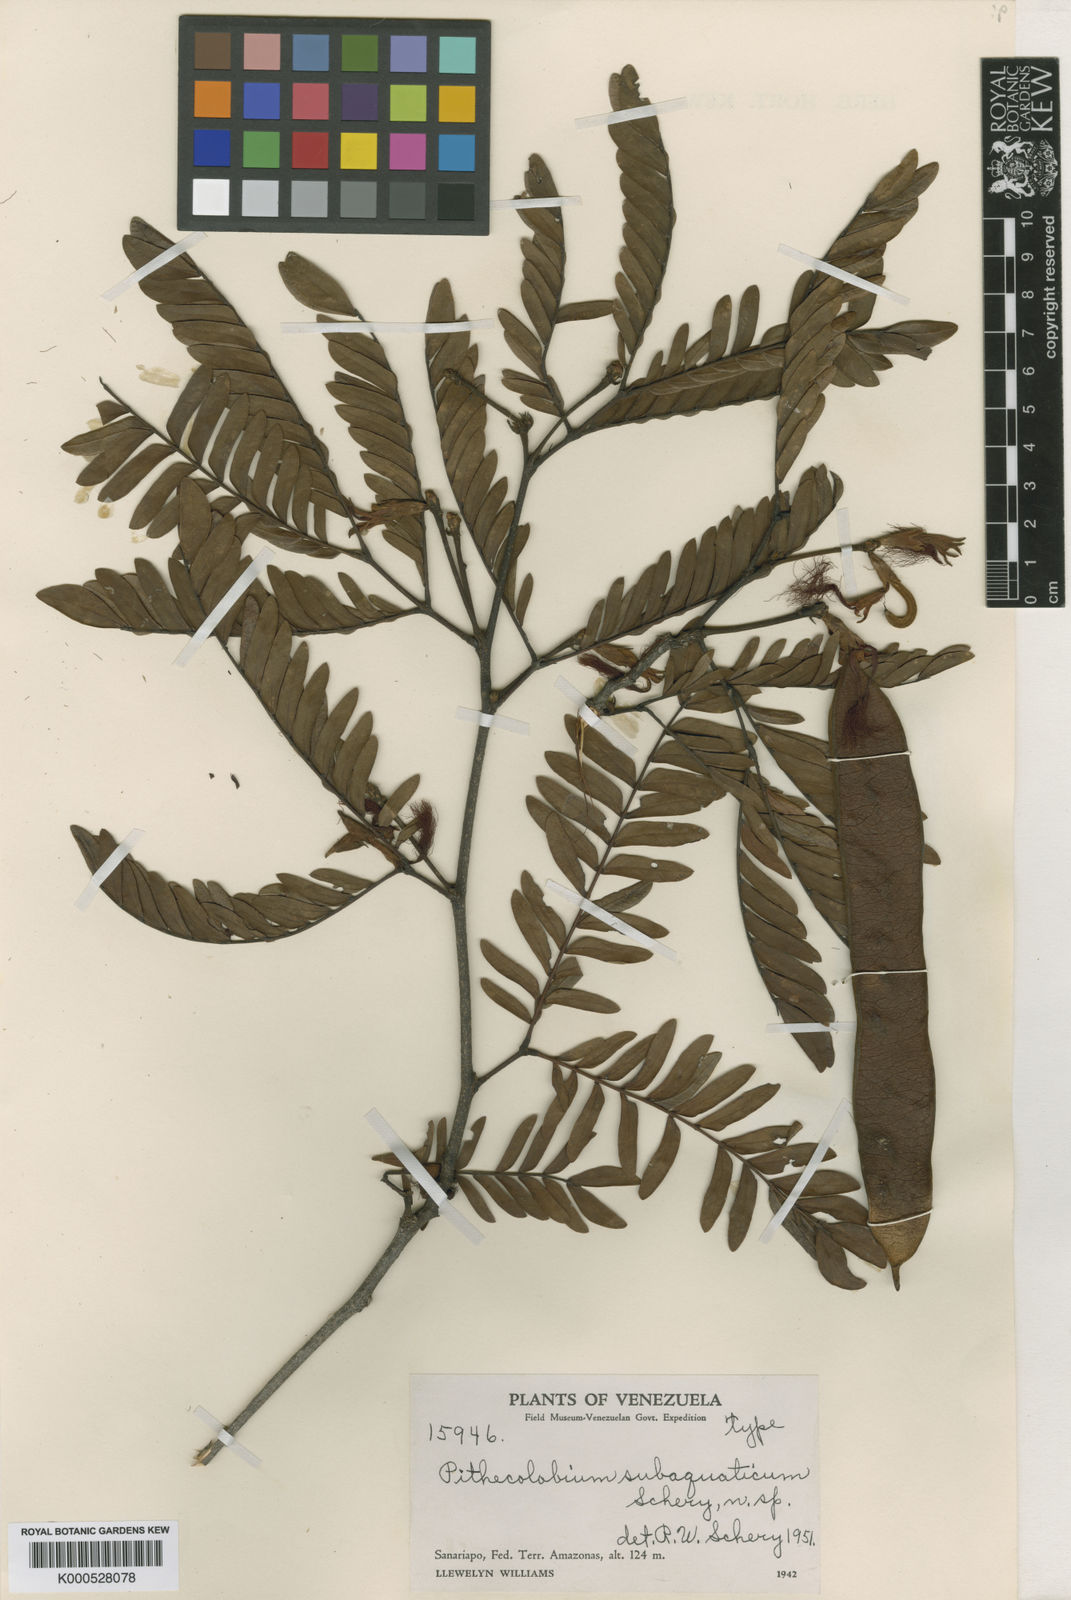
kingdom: Plantae
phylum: Tracheophyta
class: Magnoliopsida
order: Fabales
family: Fabaceae
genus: Macrosamanea
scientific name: Macrosamanea
